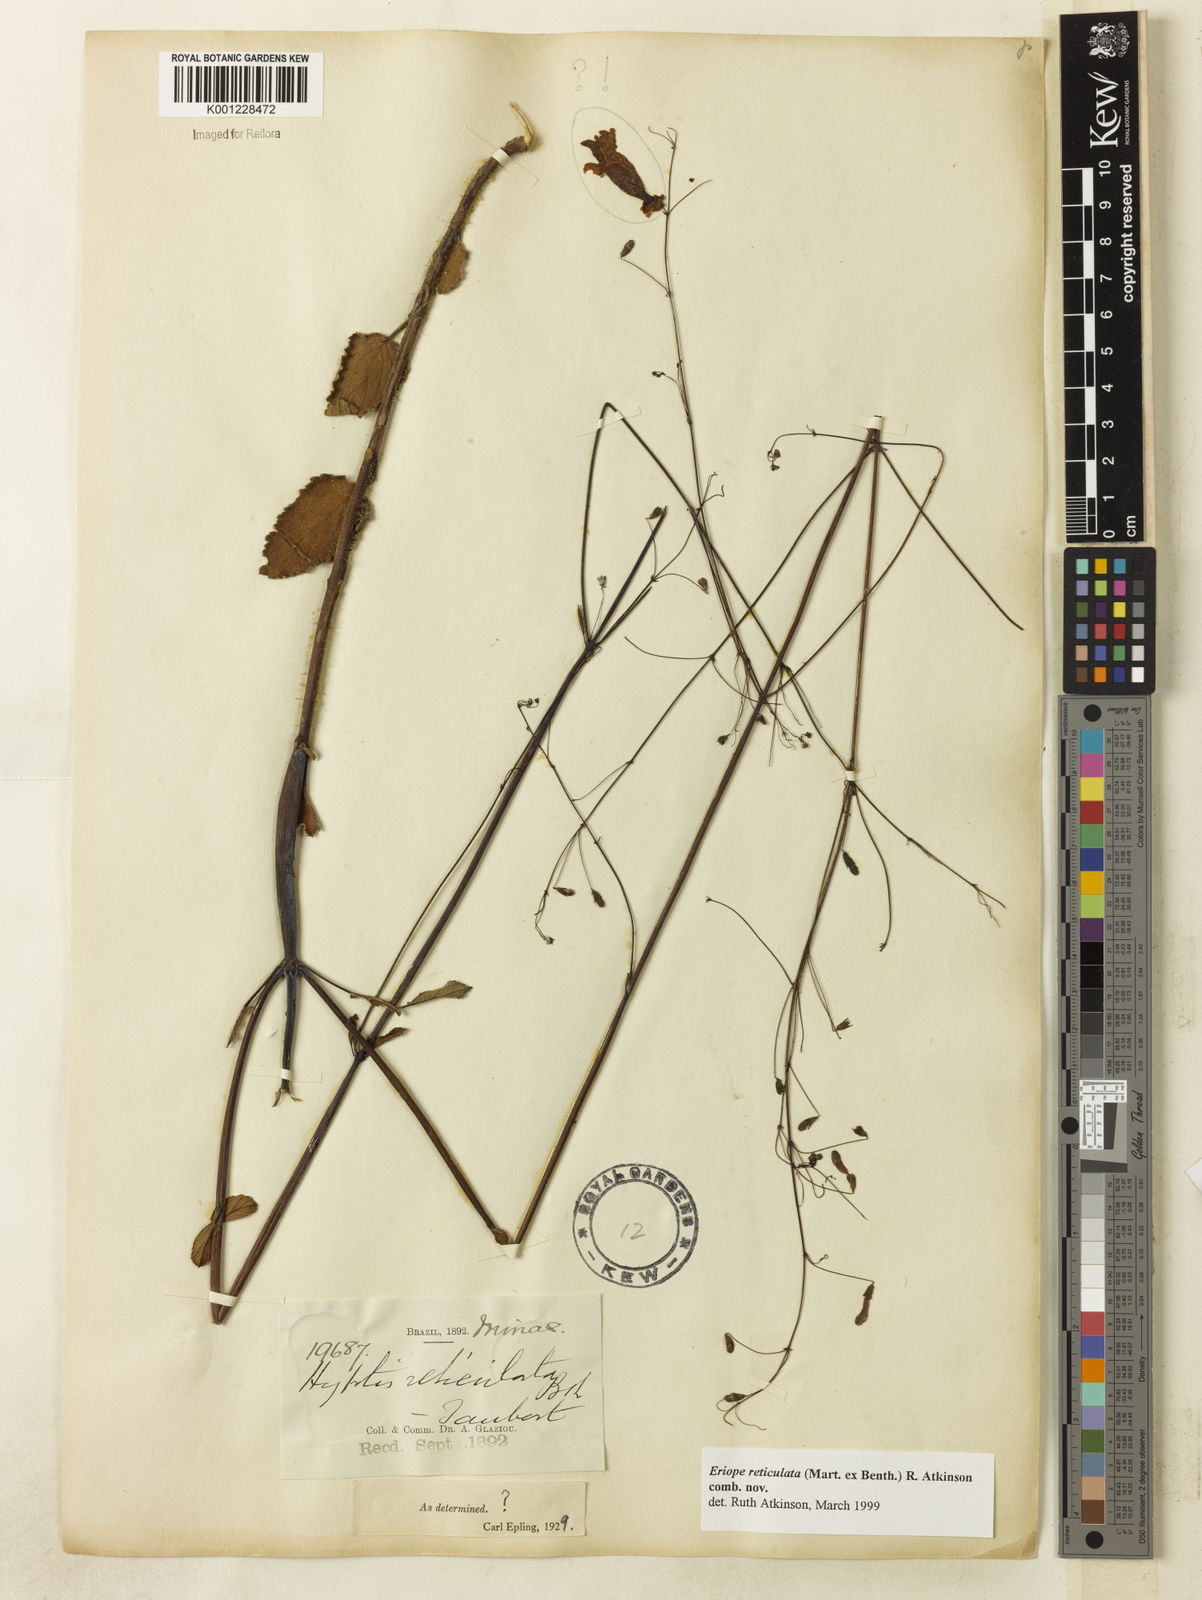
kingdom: Plantae
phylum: Tracheophyta
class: Magnoliopsida
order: Lamiales
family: Lamiaceae
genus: Hypenia
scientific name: Hypenia reticulata
